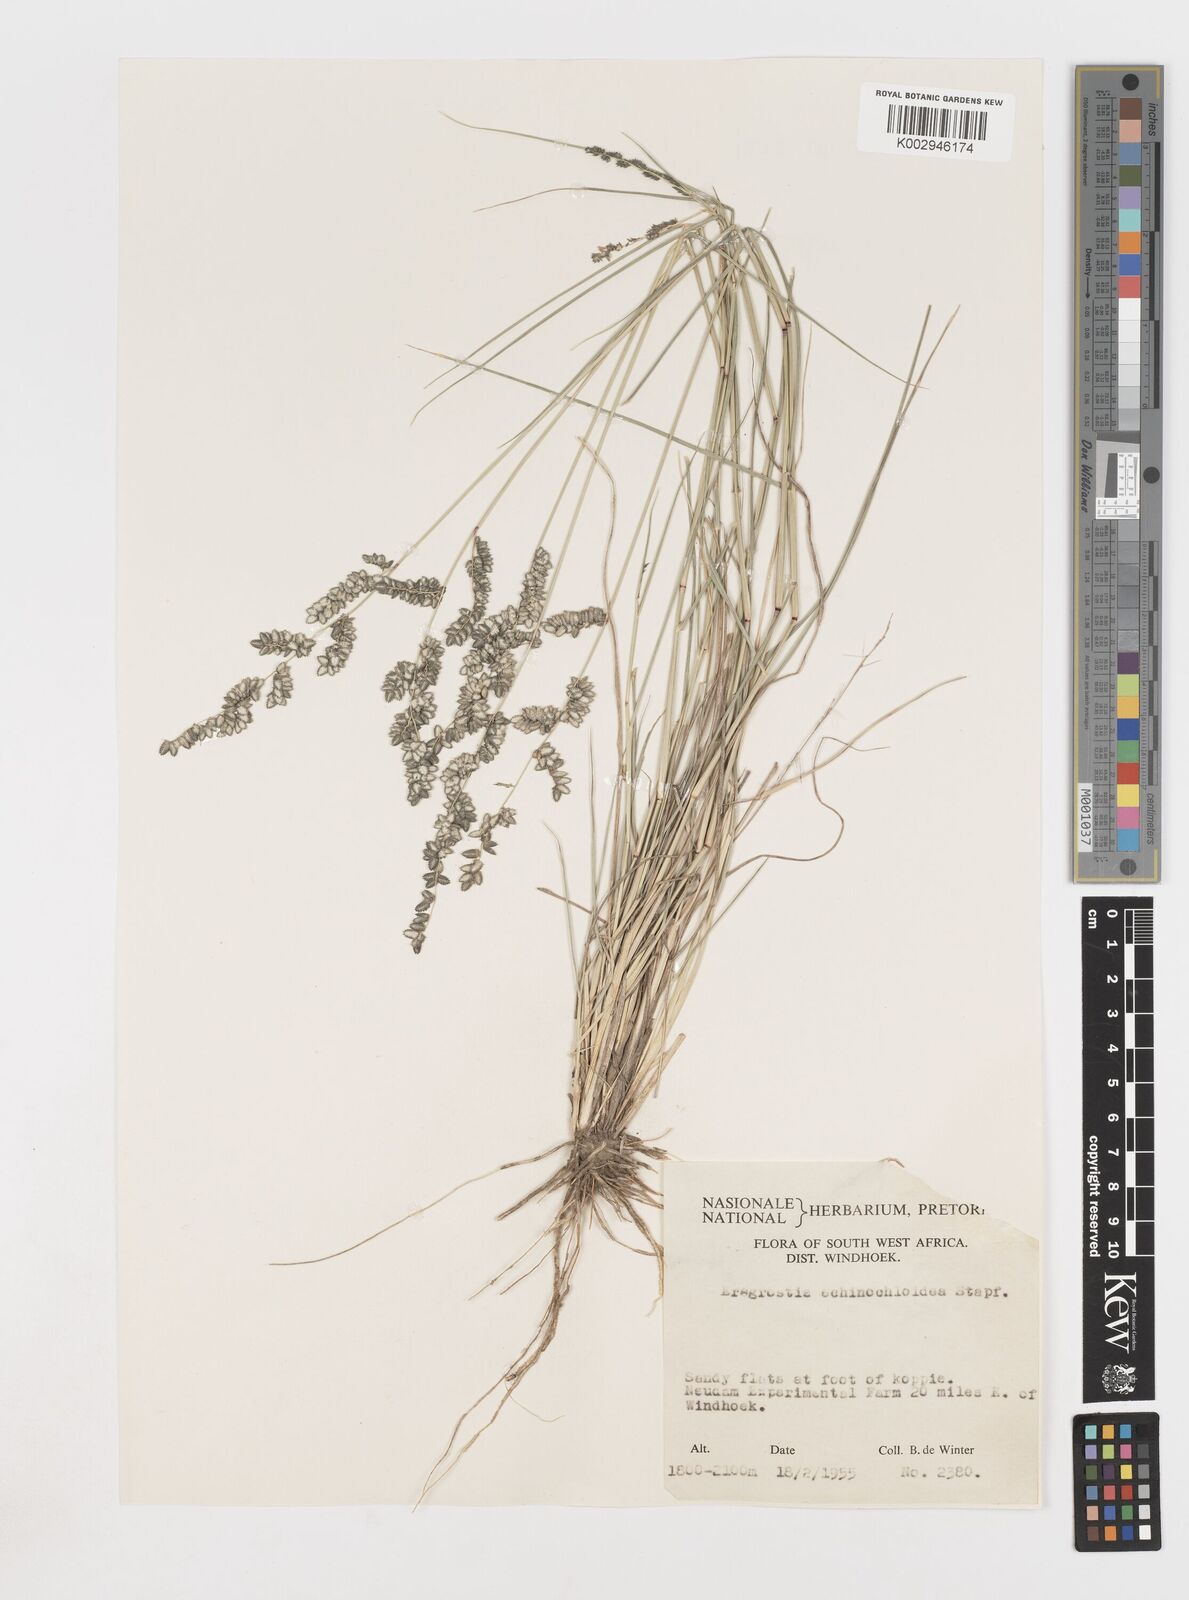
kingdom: Plantae
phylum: Tracheophyta
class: Liliopsida
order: Poales
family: Poaceae
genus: Eragrostis
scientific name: Eragrostis echinochloidea
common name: African lovegrass
